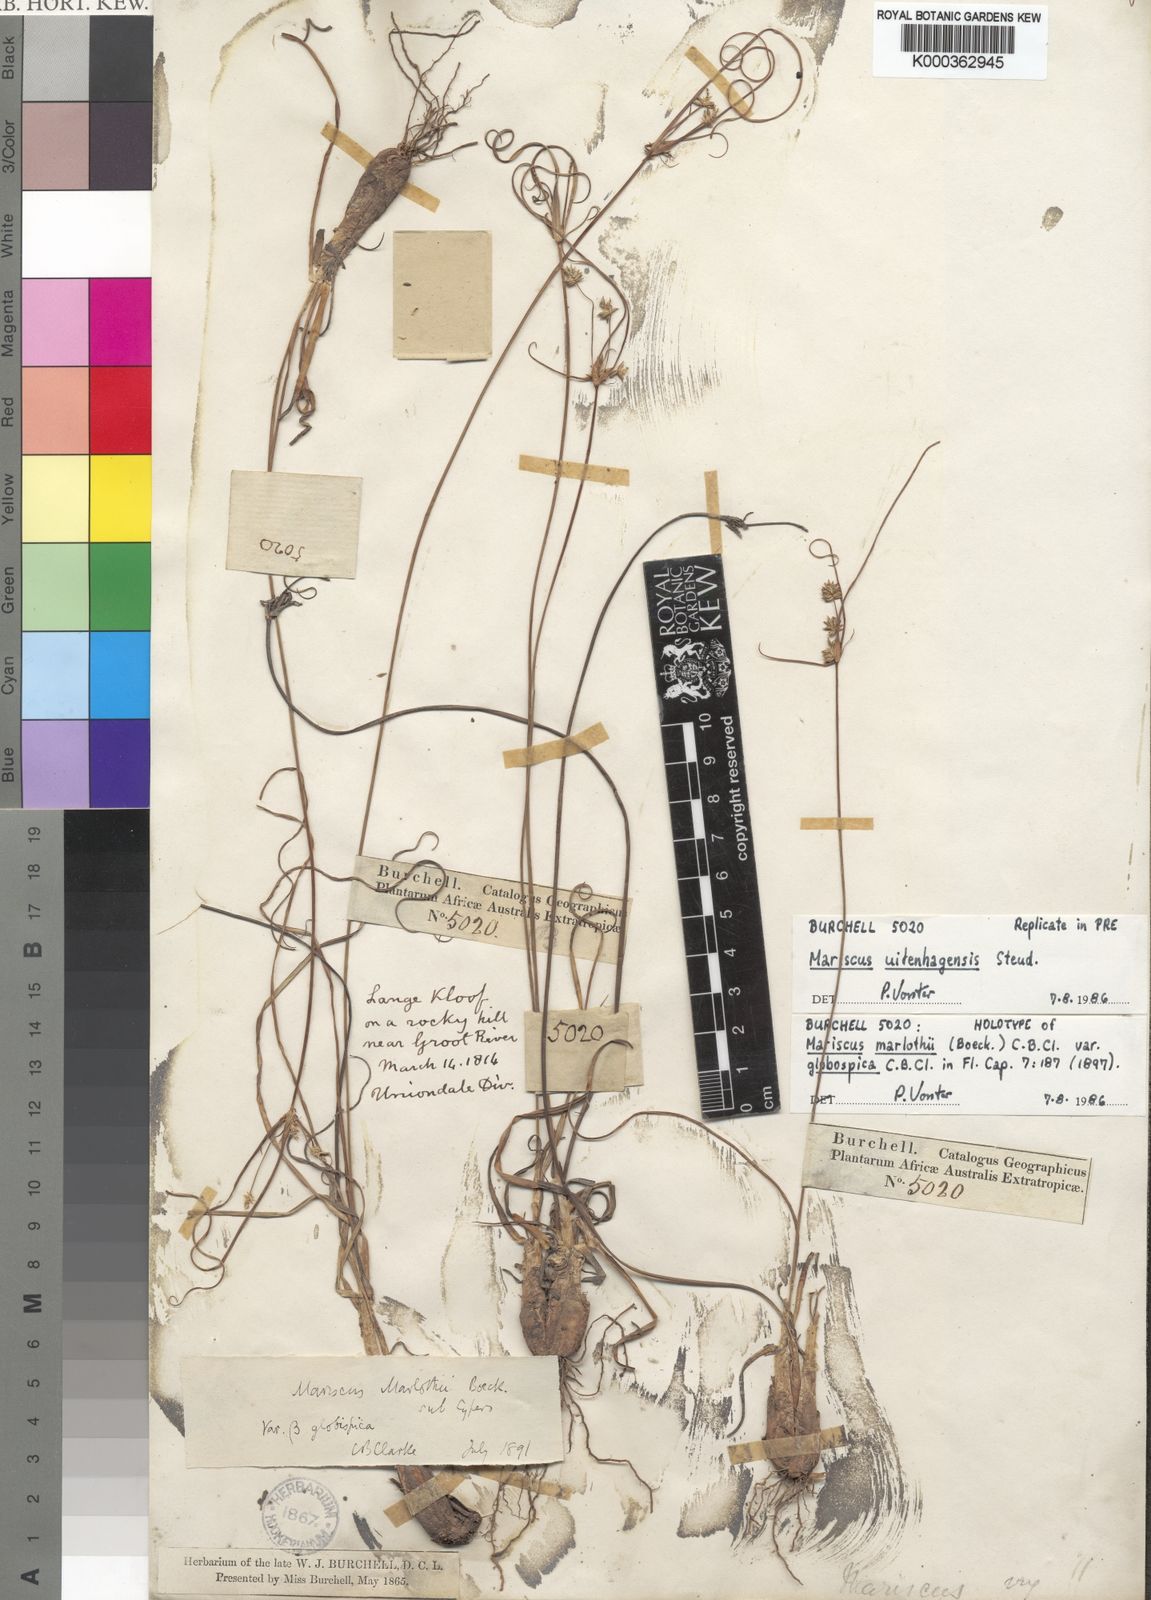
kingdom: Plantae
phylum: Tracheophyta
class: Liliopsida
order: Poales
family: Cyperaceae
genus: Cyperus
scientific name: Cyperus marlothii
